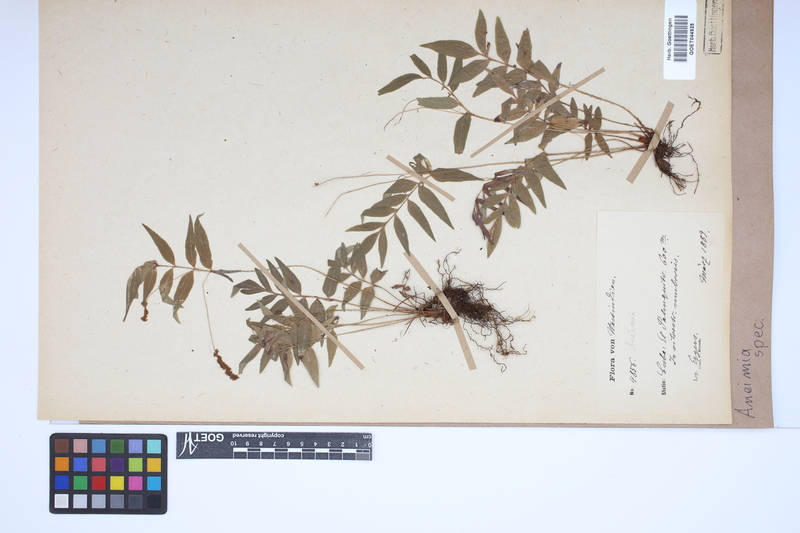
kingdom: Plantae
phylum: Tracheophyta
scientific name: Tracheophyta
